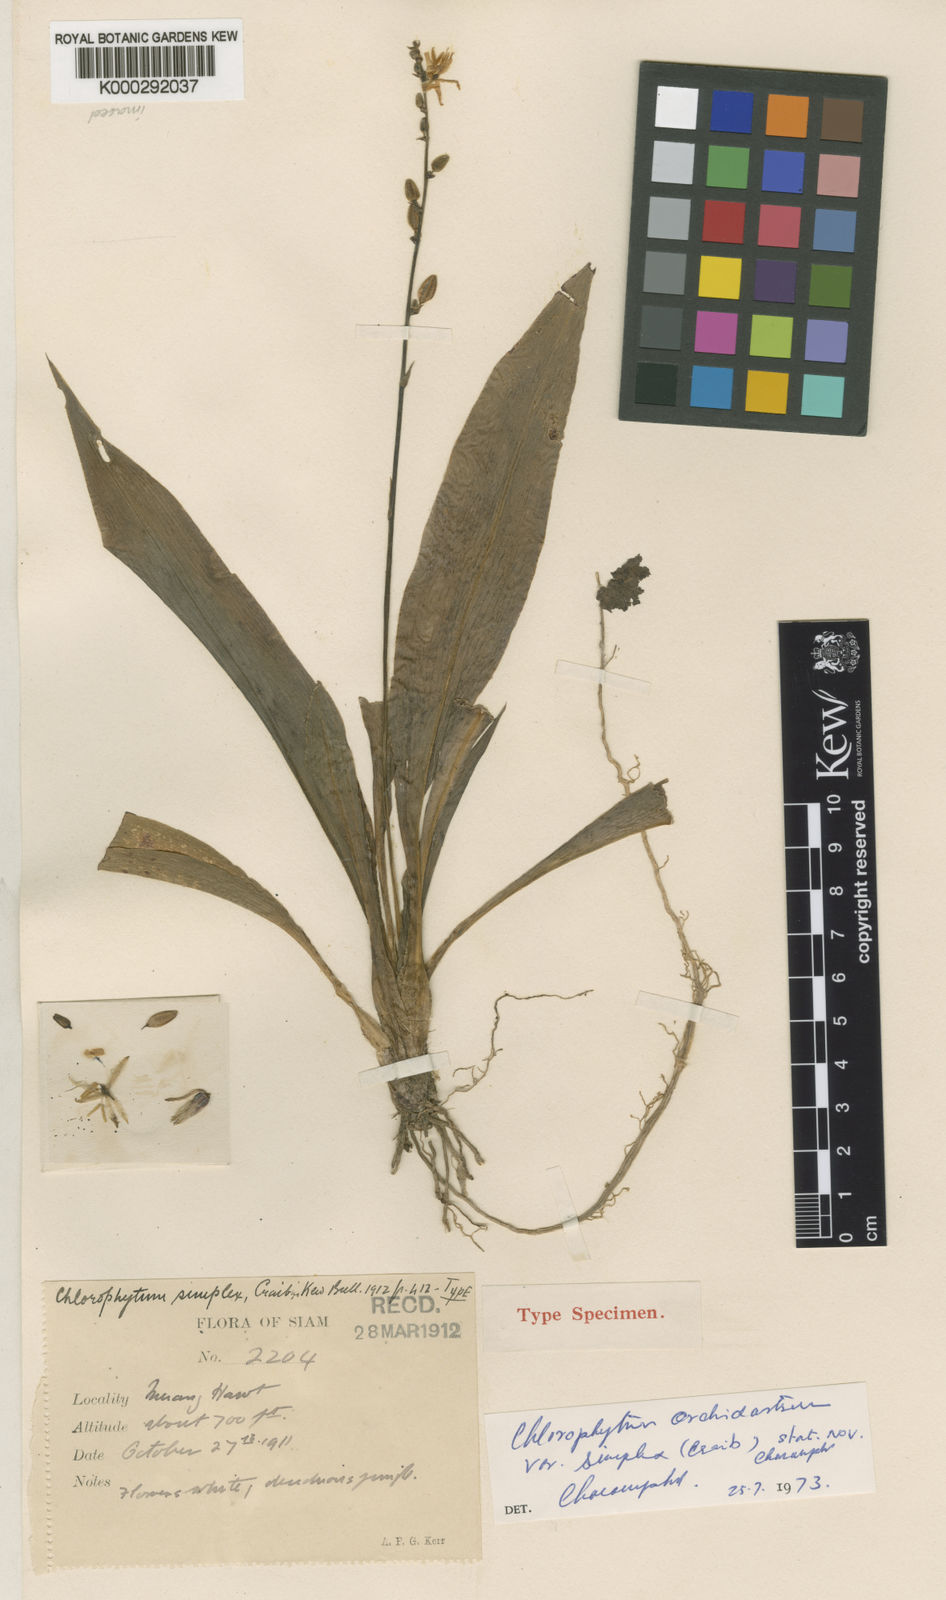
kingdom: Plantae
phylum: Tracheophyta
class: Liliopsida
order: Asparagales
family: Asparagaceae
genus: Chlorophytum
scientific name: Chlorophytum simplex
